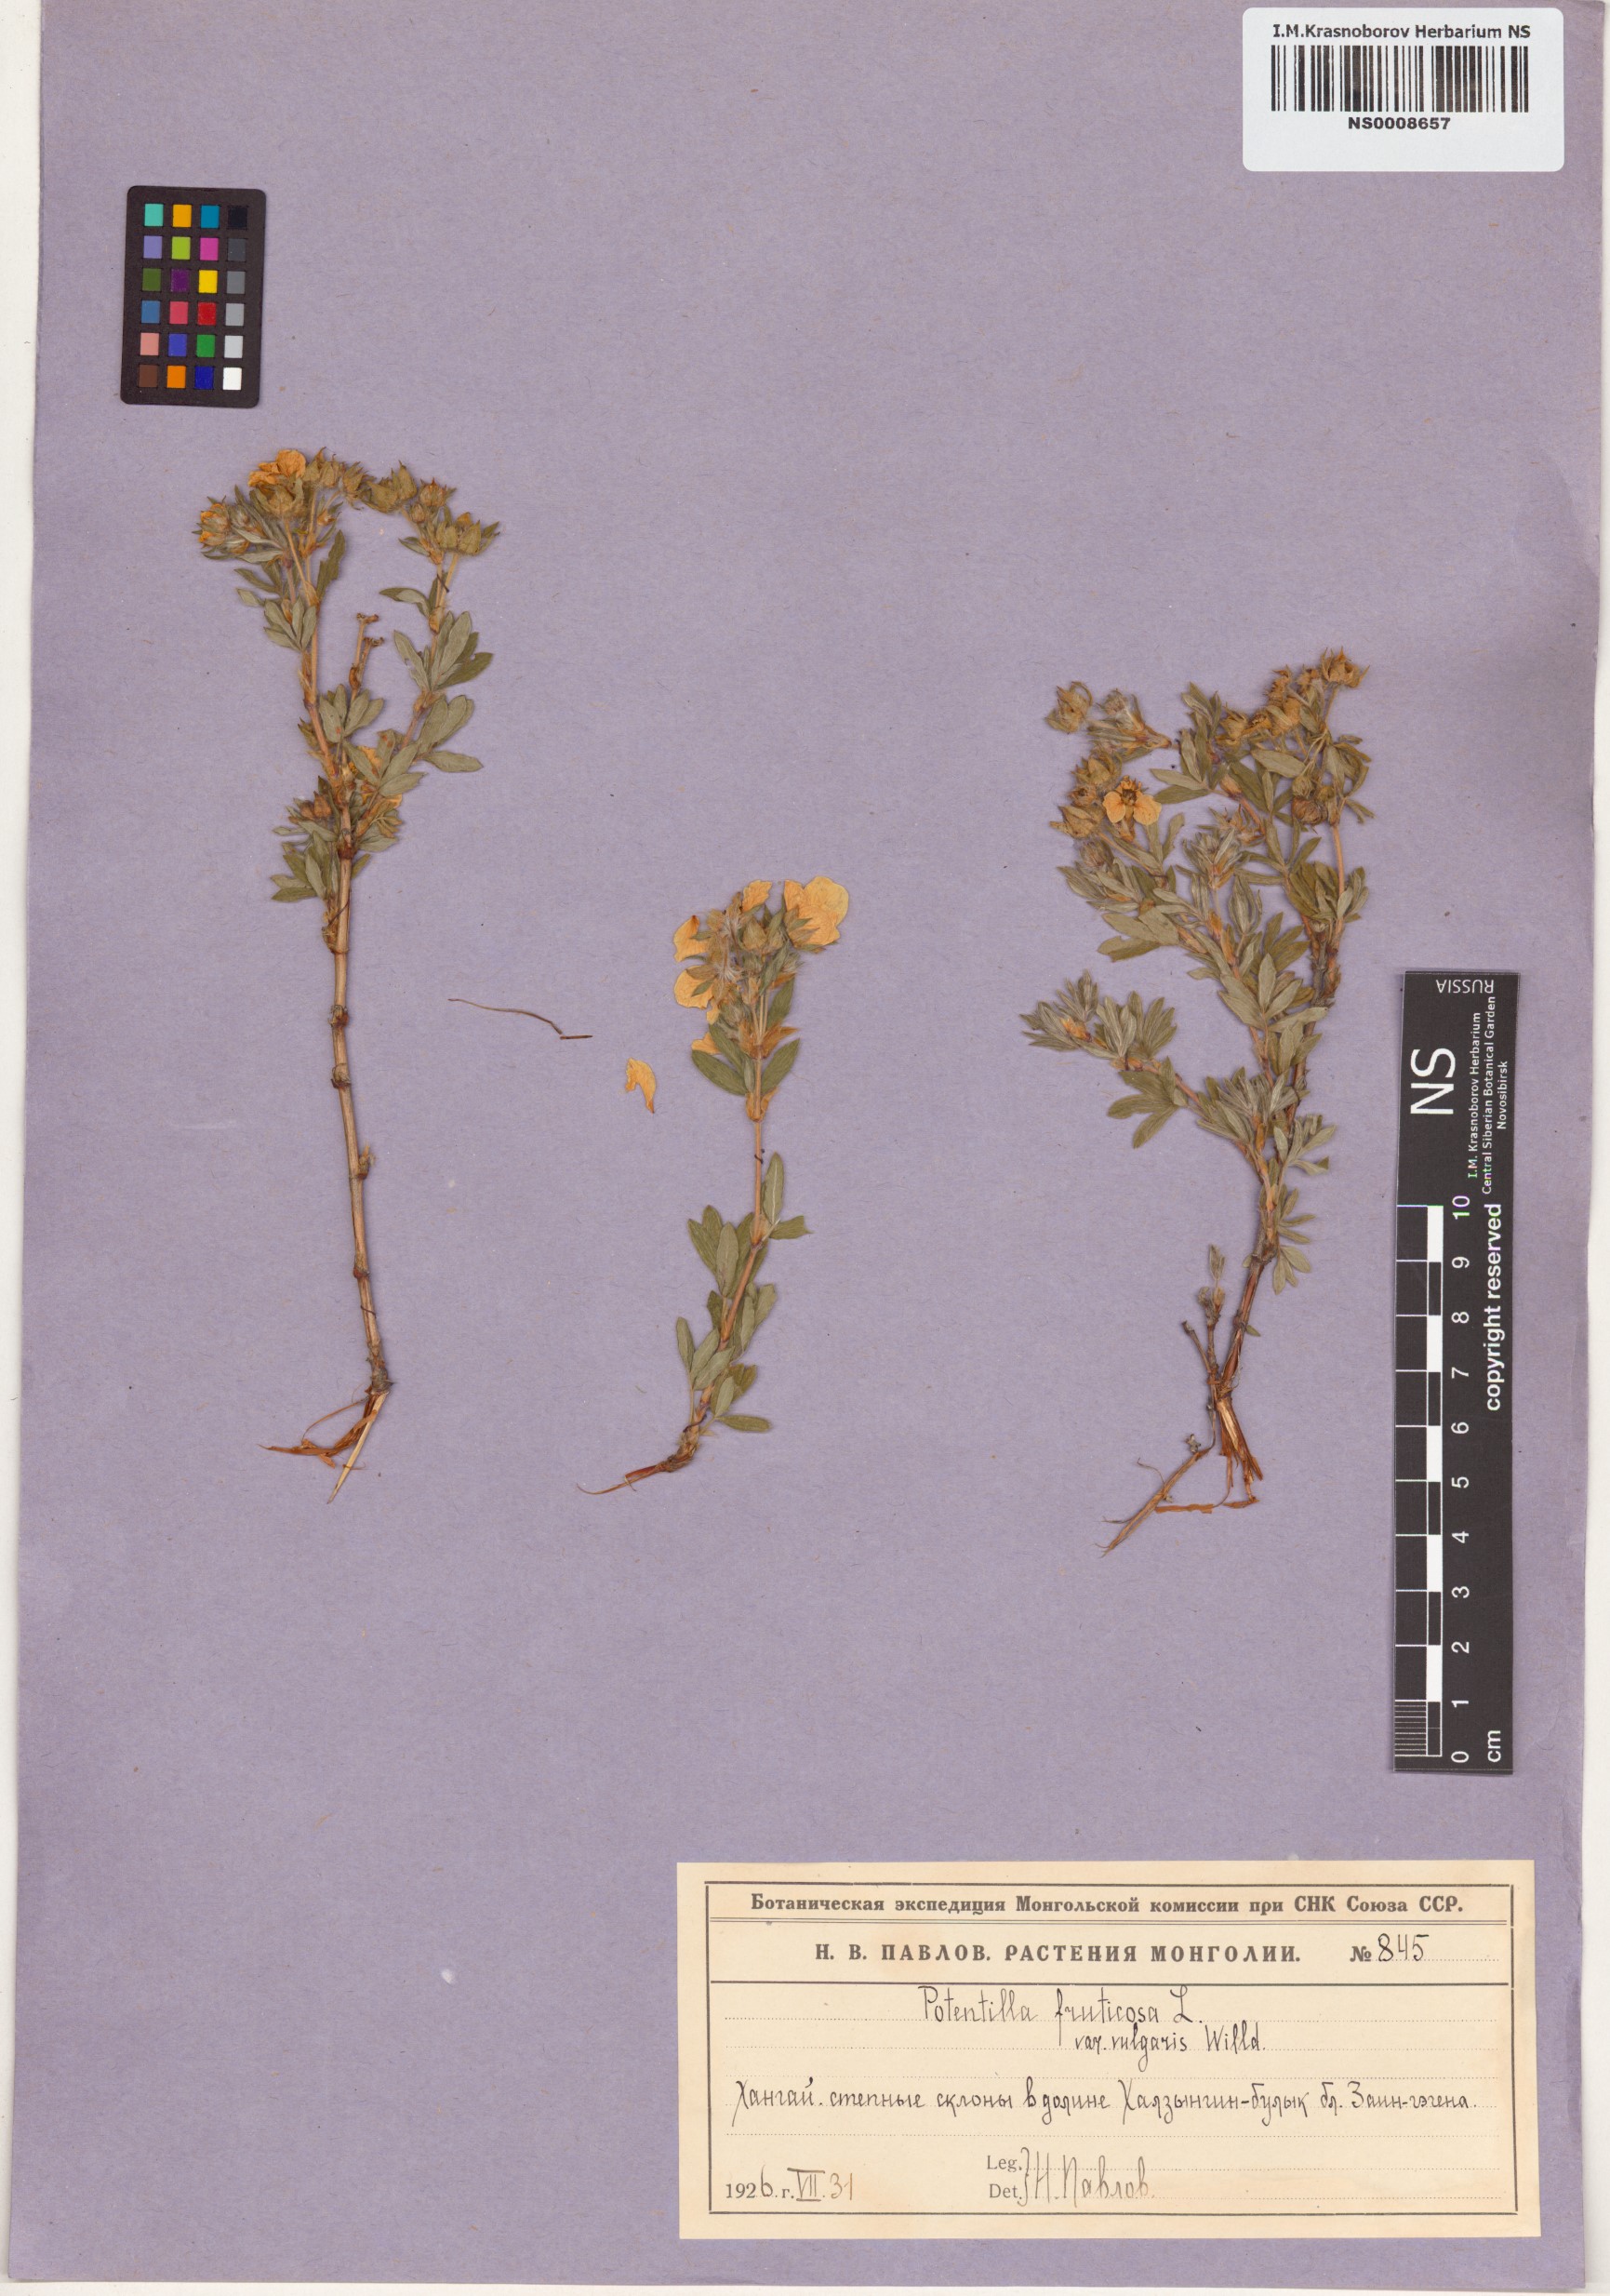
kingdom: Plantae
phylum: Tracheophyta
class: Magnoliopsida
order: Rosales
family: Rosaceae
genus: Dasiphora
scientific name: Dasiphora fruticosa
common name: Shrubby cinquefoil
